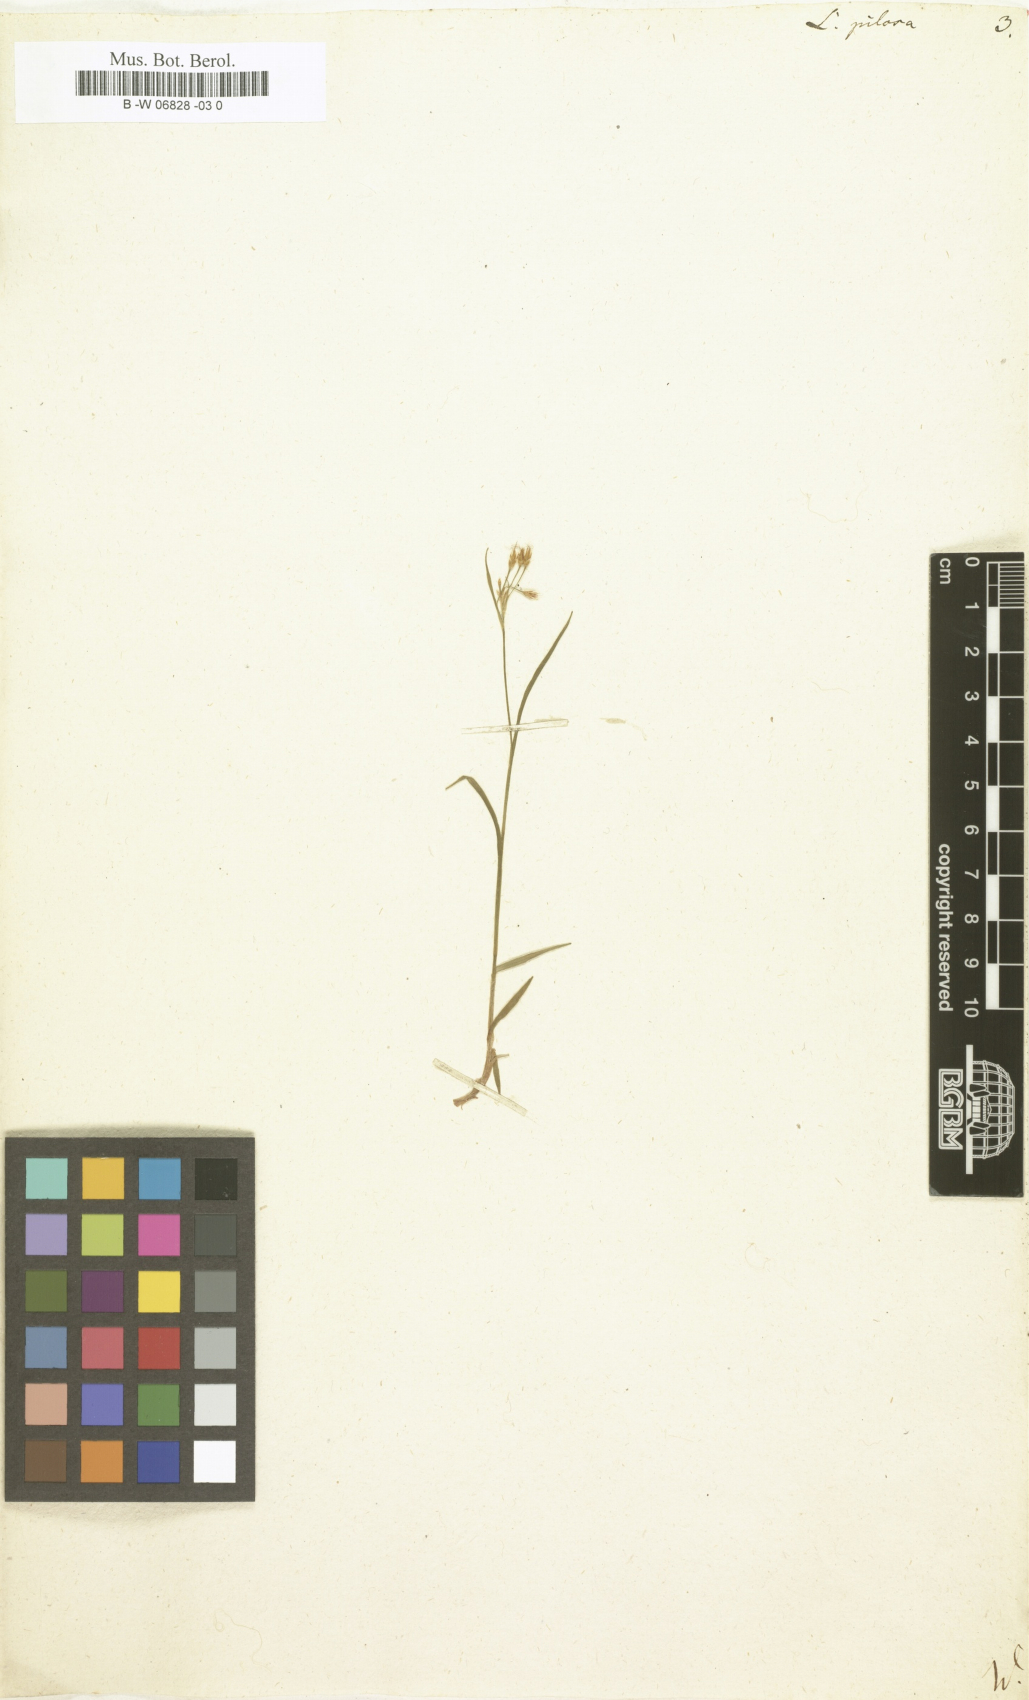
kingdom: Plantae
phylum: Tracheophyta
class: Liliopsida
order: Poales
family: Juncaceae
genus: Luzula
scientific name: Luzula pilosa
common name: Hairy wood-rush
